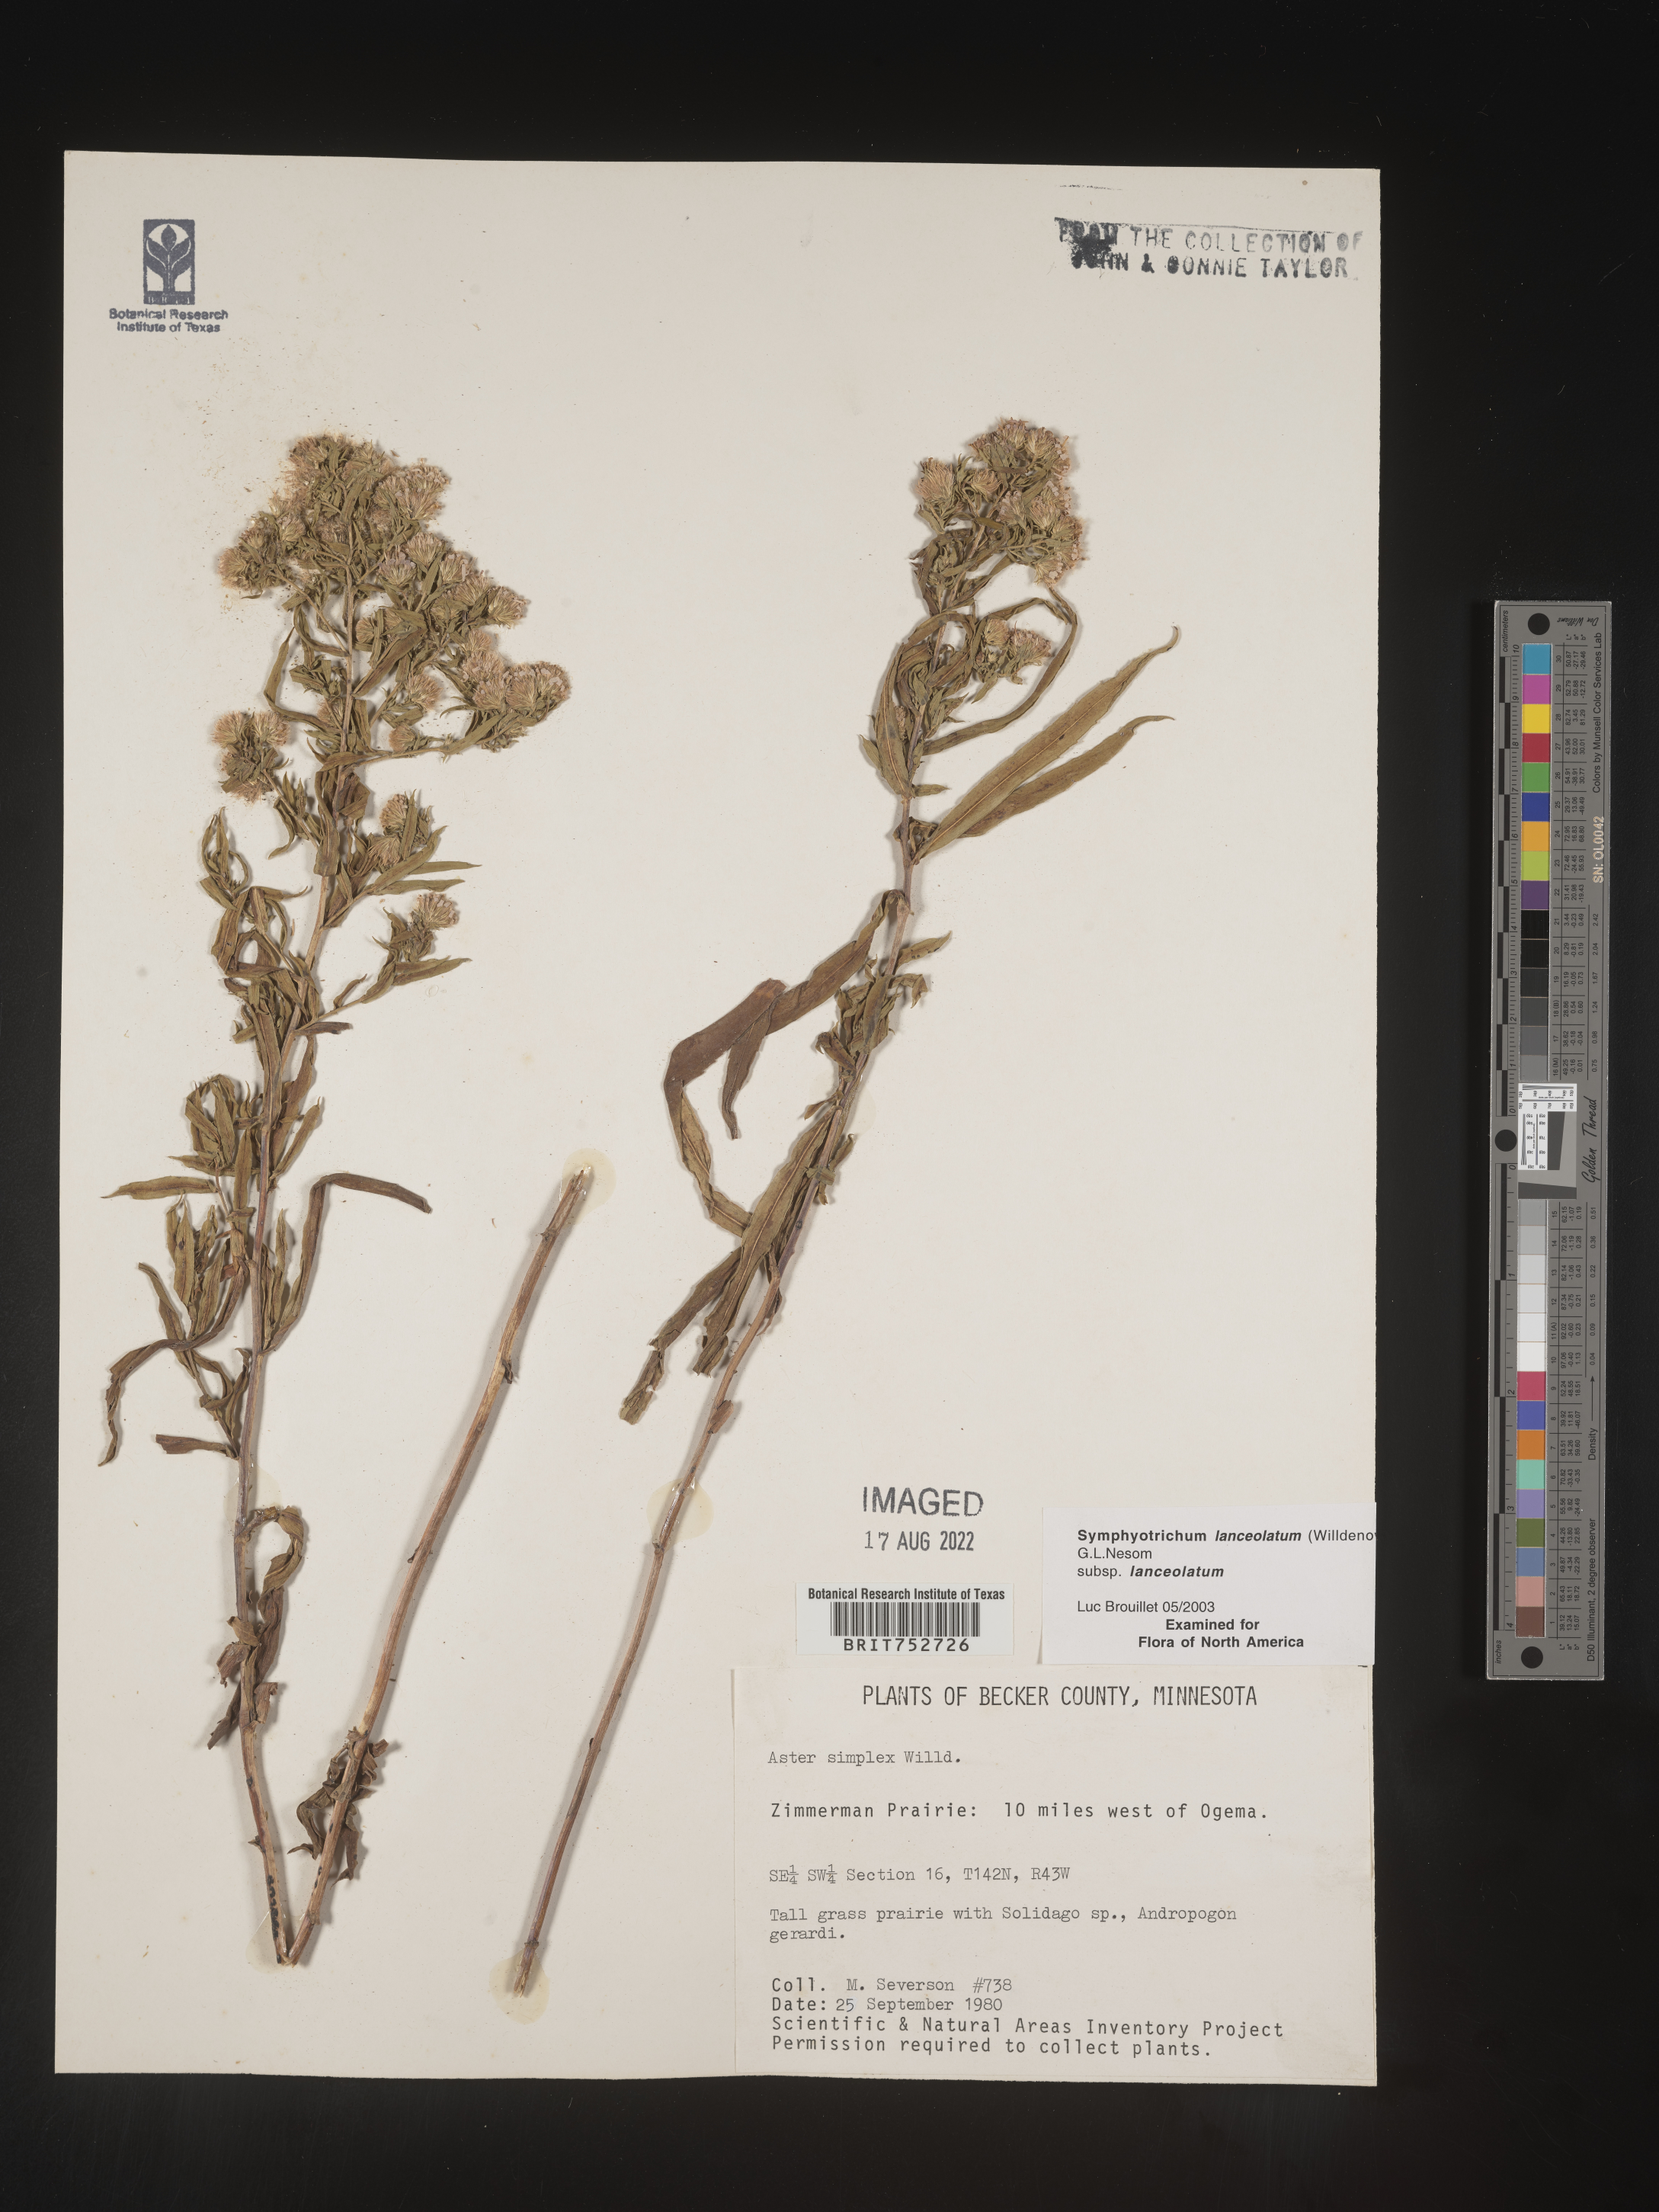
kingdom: Plantae
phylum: Tracheophyta
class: Magnoliopsida
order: Asterales
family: Asteraceae
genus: Symphyotrichum
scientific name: Symphyotrichum lanceolatum
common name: Panicled aster
